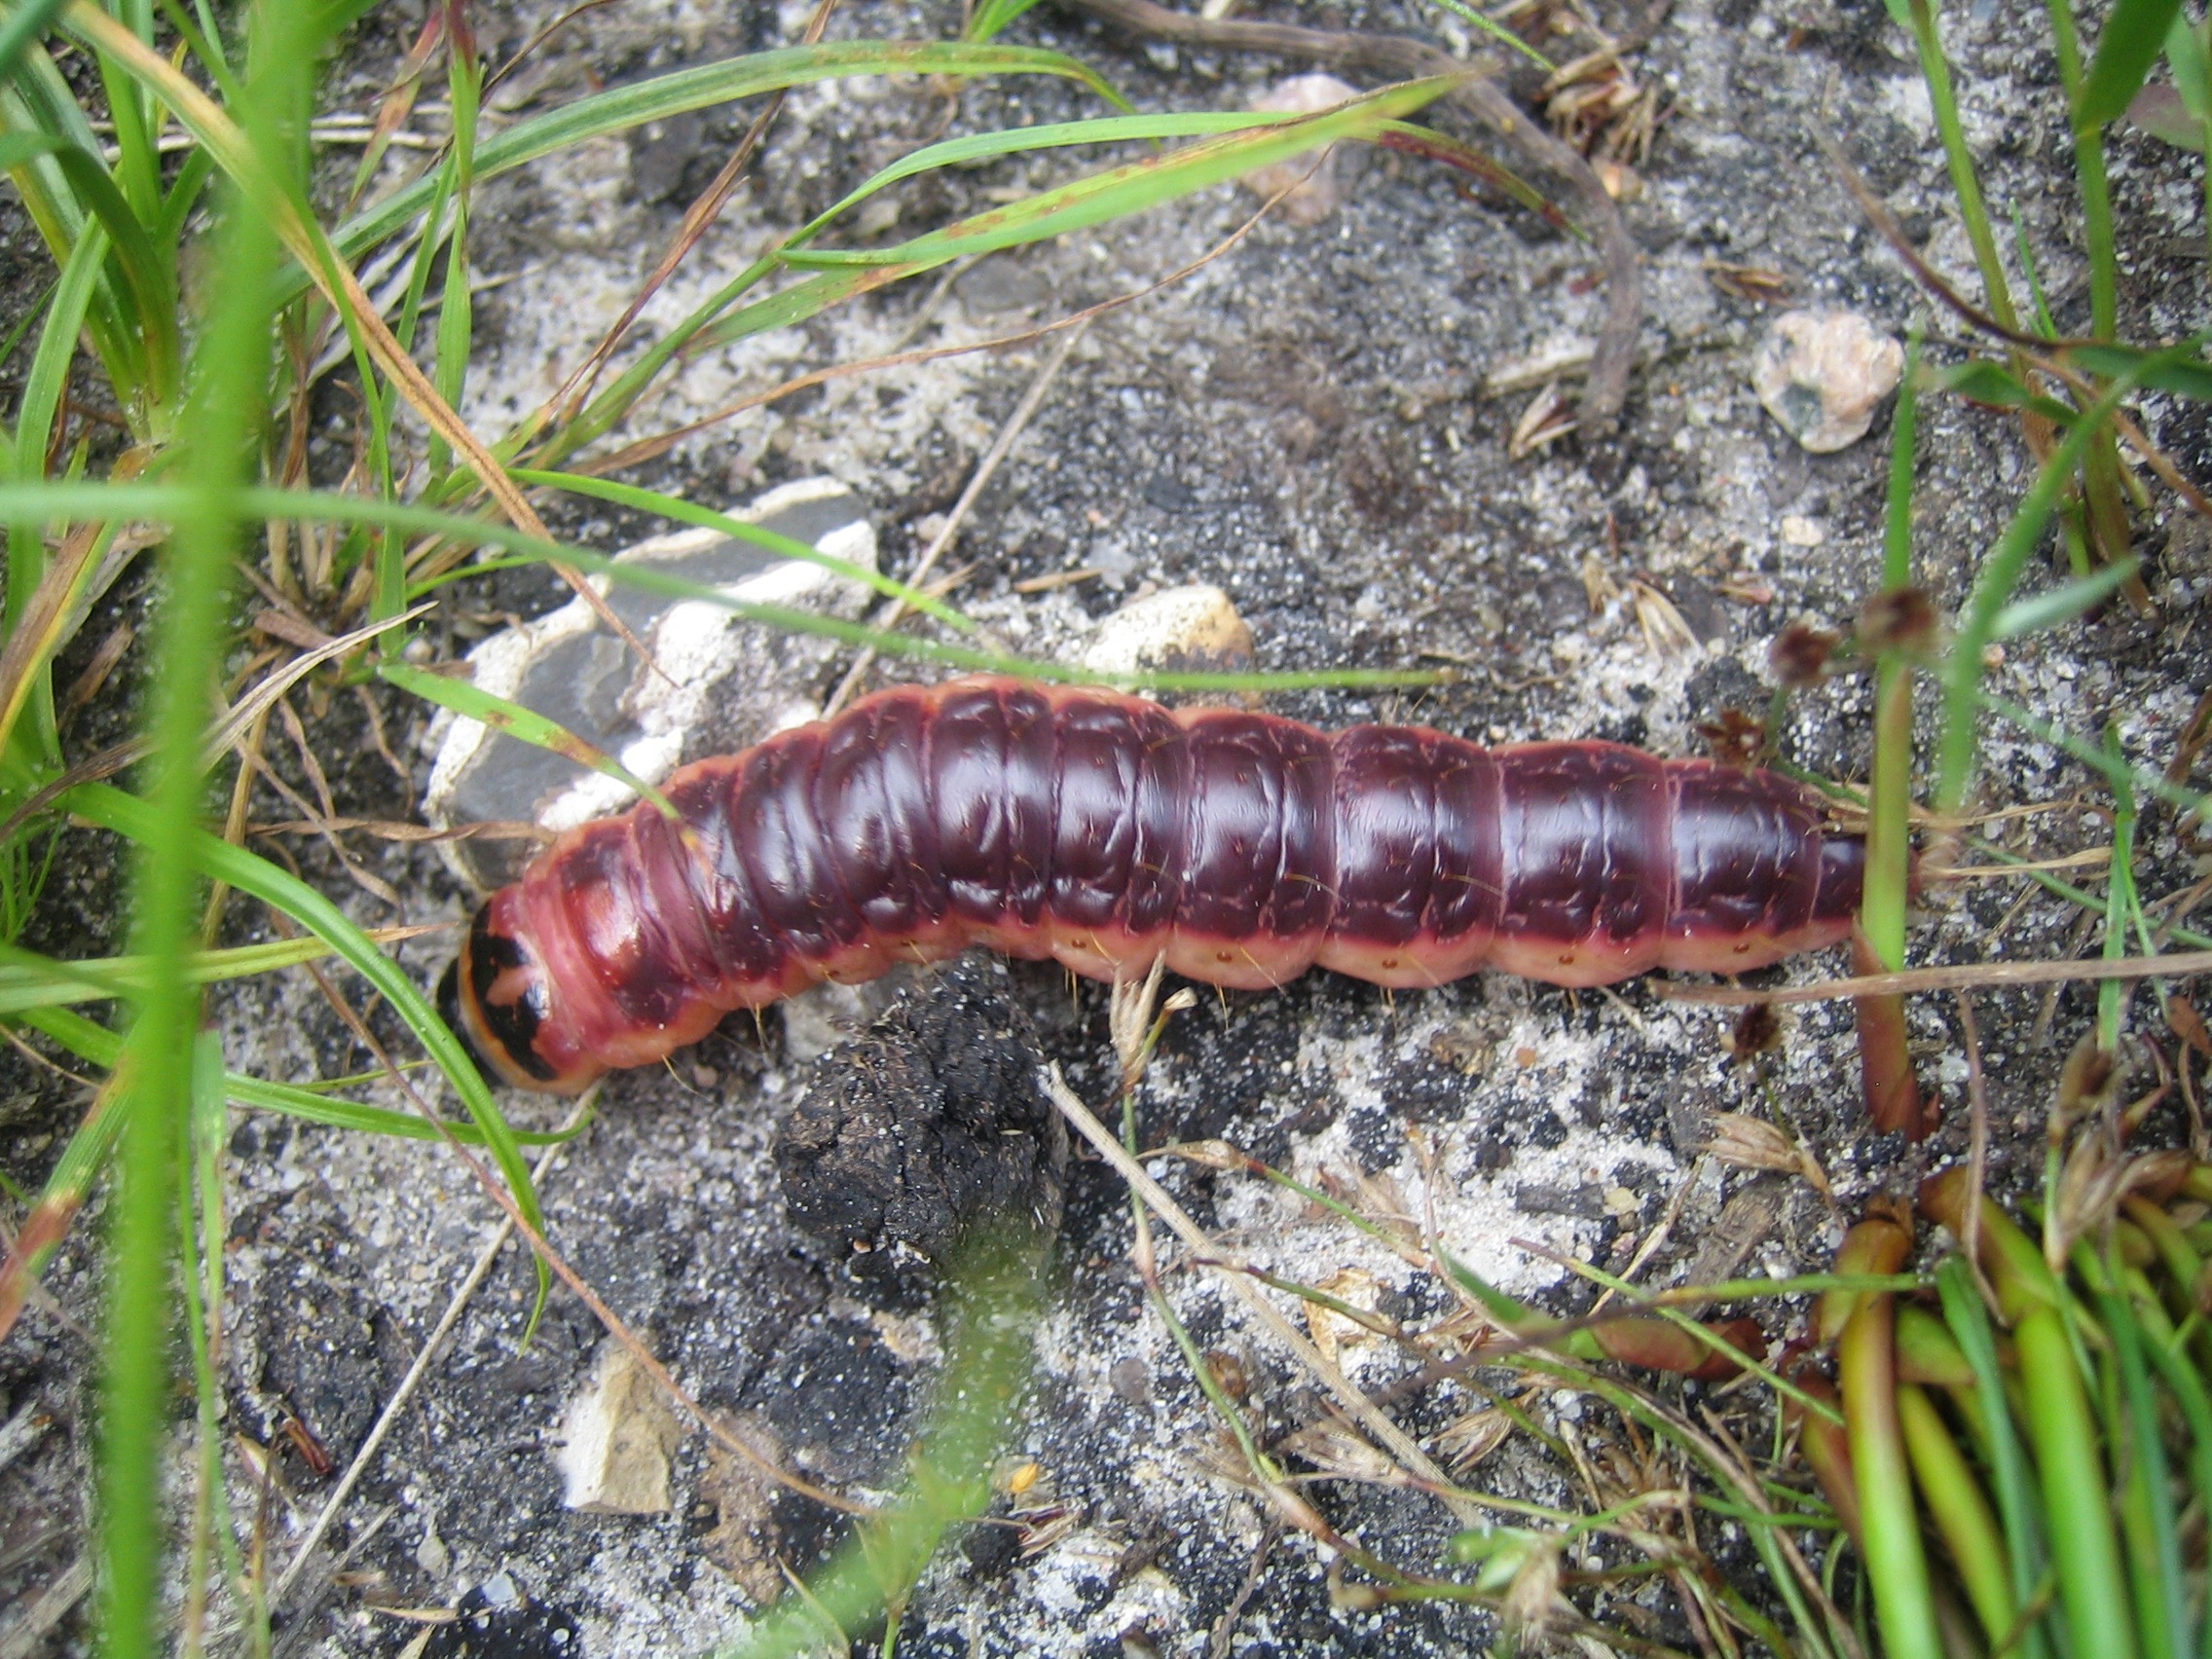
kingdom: Animalia
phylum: Arthropoda
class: Insecta
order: Lepidoptera
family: Cossidae
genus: Cossus
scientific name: Cossus cossus
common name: Pileborer
